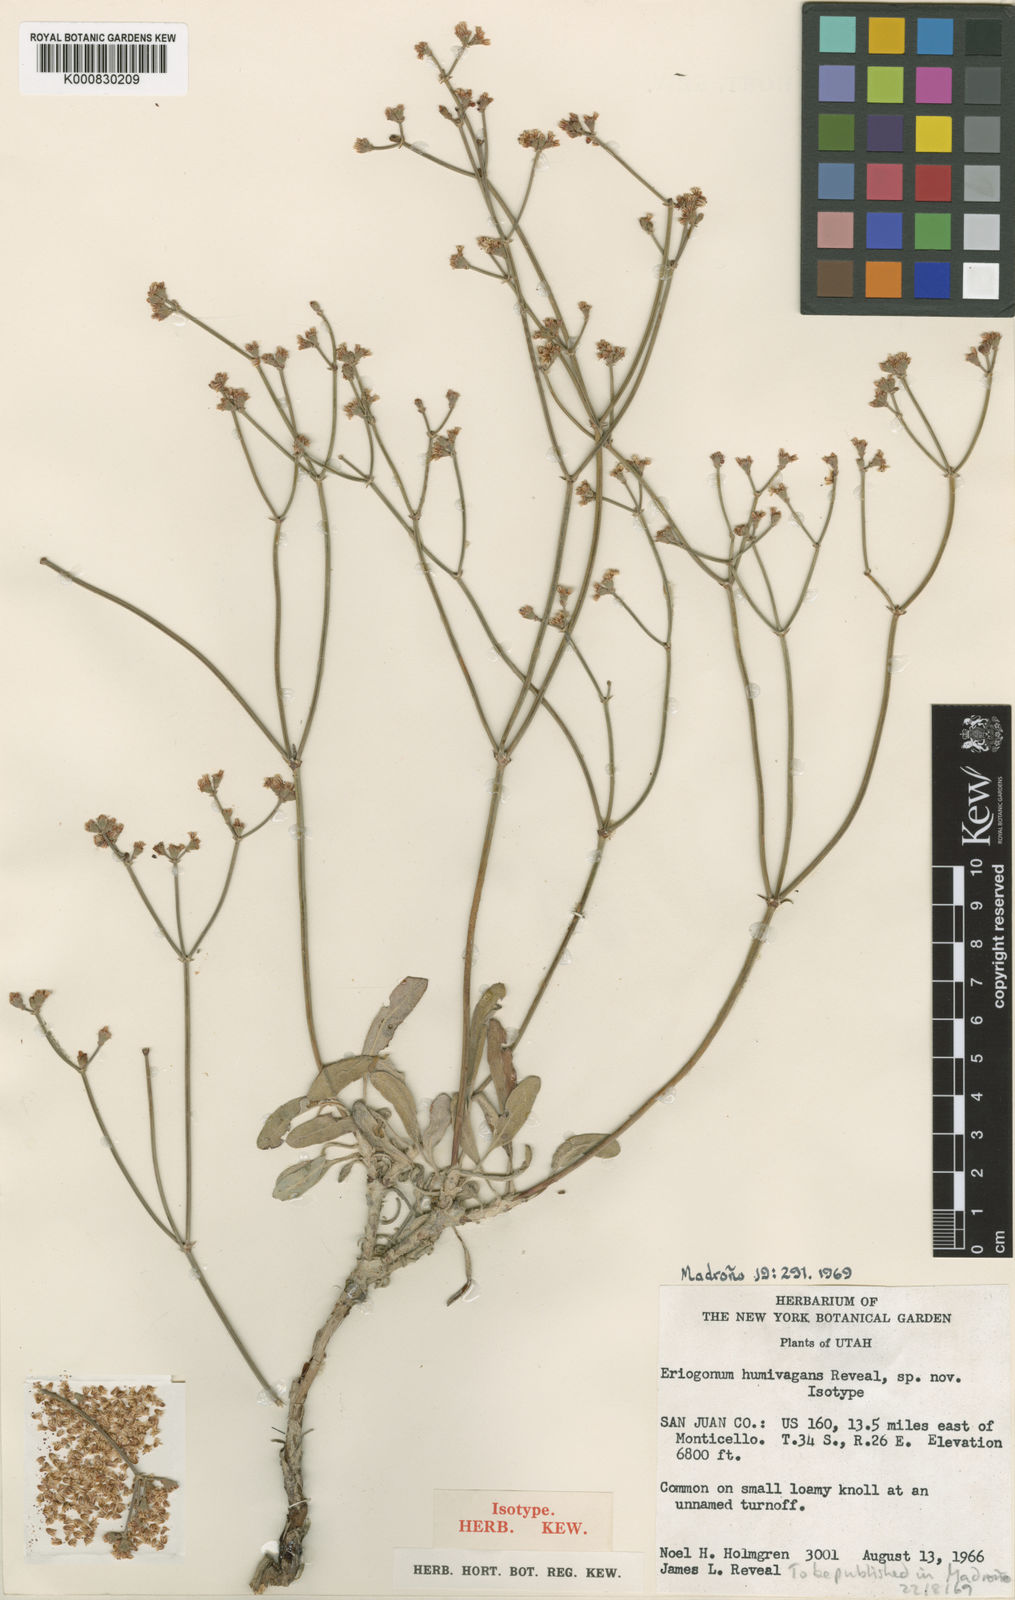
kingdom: Plantae
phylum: Tracheophyta
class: Magnoliopsida
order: Caryophyllales
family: Polygonaceae
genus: Eriogonum
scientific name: Eriogonum lonchophyllum
